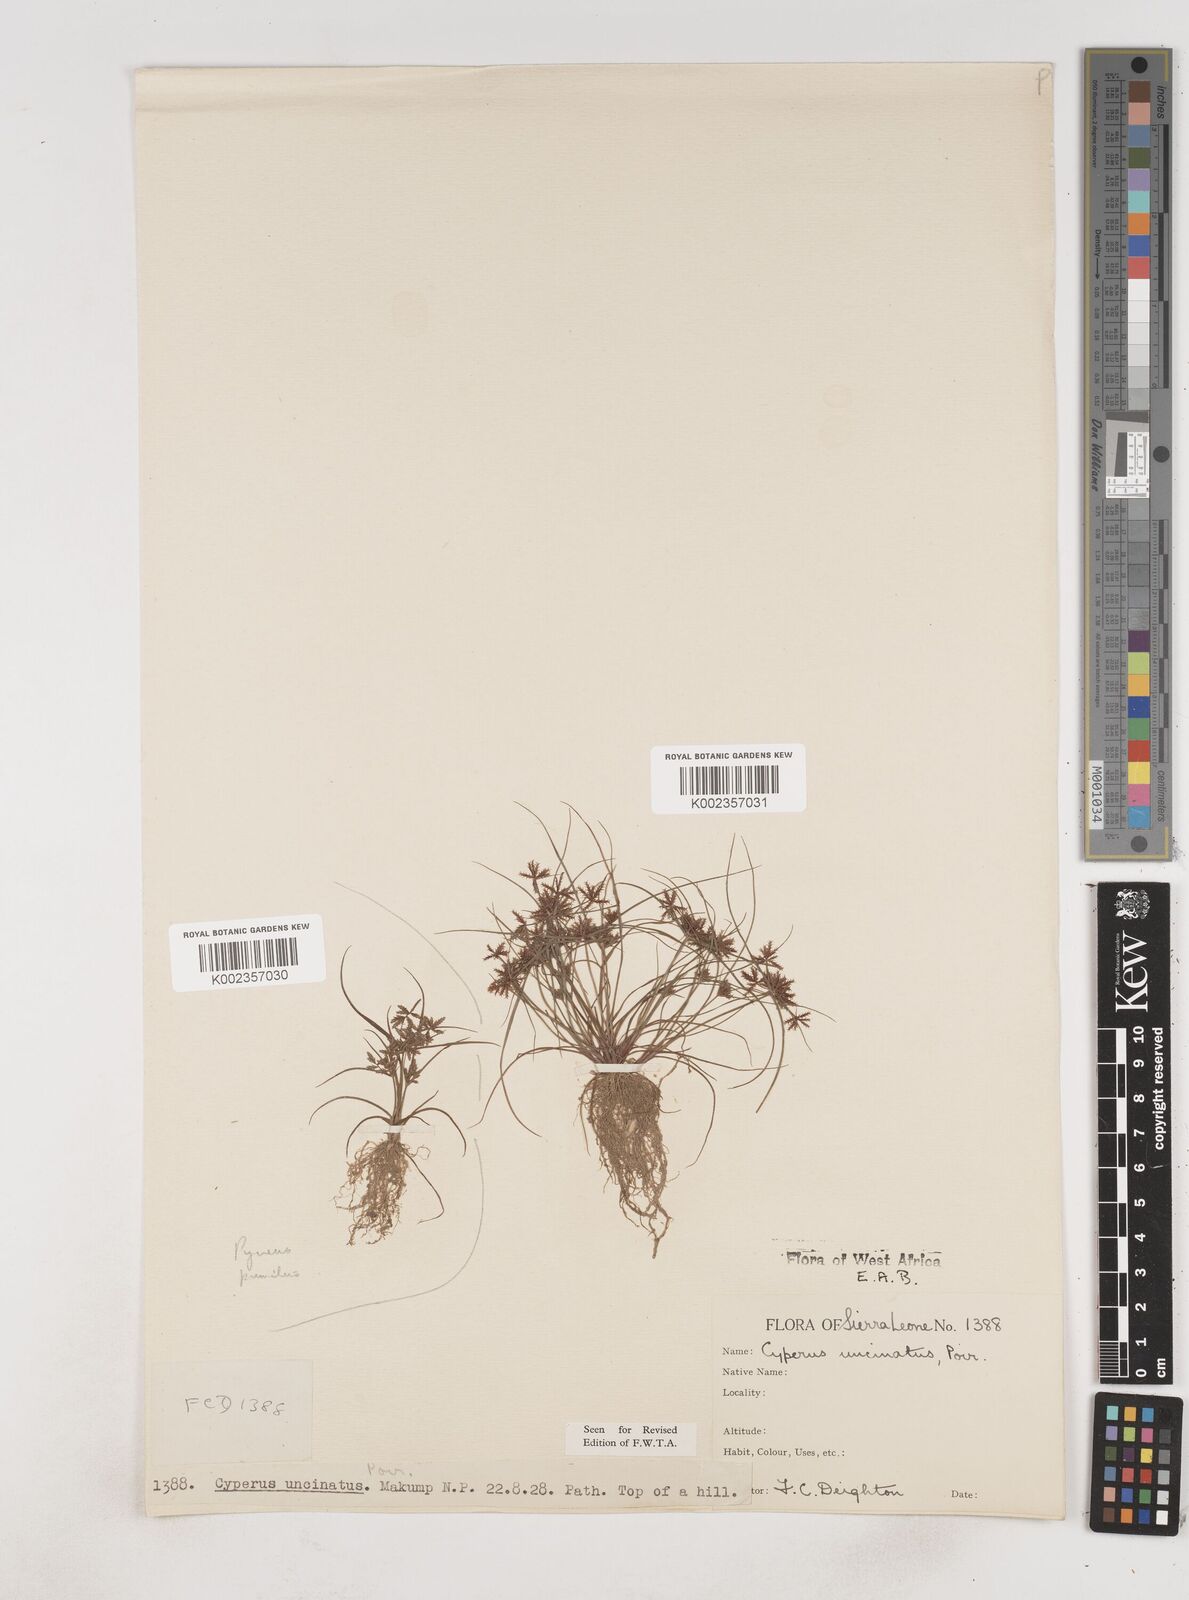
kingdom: Plantae
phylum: Tracheophyta
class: Liliopsida
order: Poales
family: Cyperaceae
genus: Cyperus
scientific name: Cyperus
